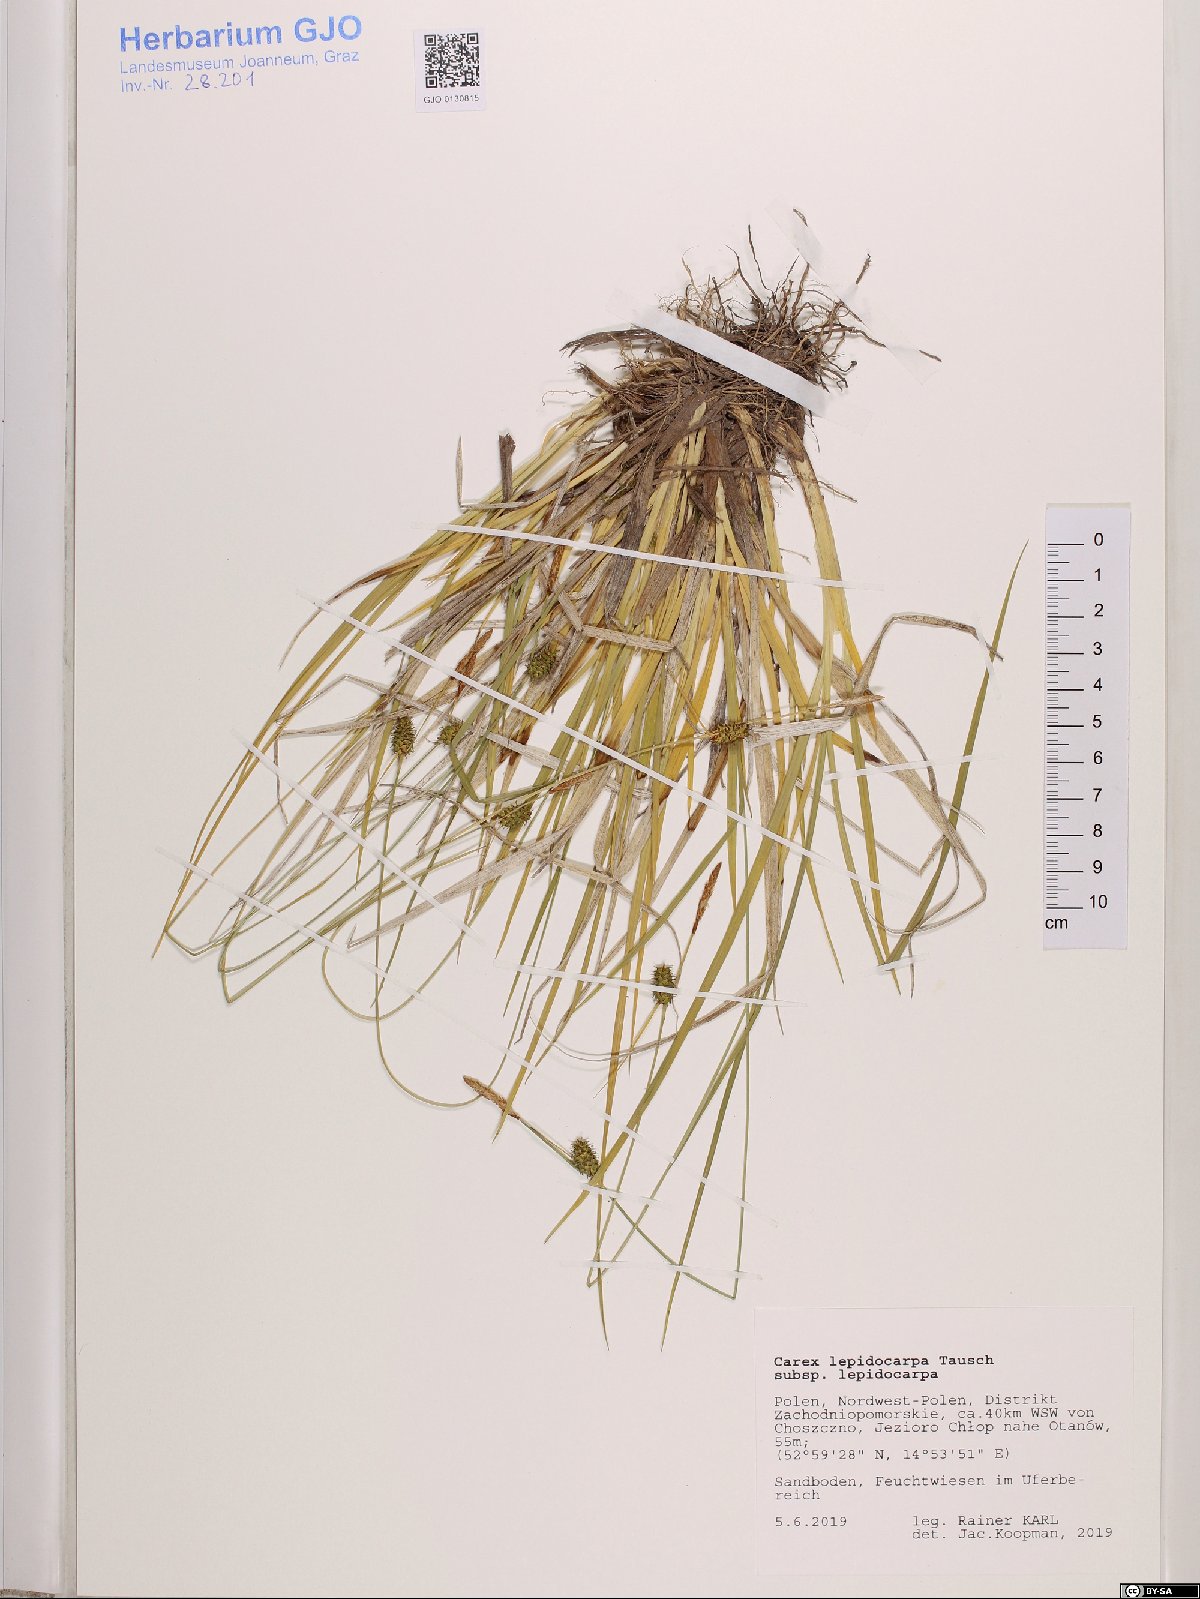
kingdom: Plantae
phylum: Tracheophyta
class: Liliopsida
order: Poales
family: Cyperaceae
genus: Carex
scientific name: Carex lepidocarpa
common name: Long-stalked yellow-sedge
